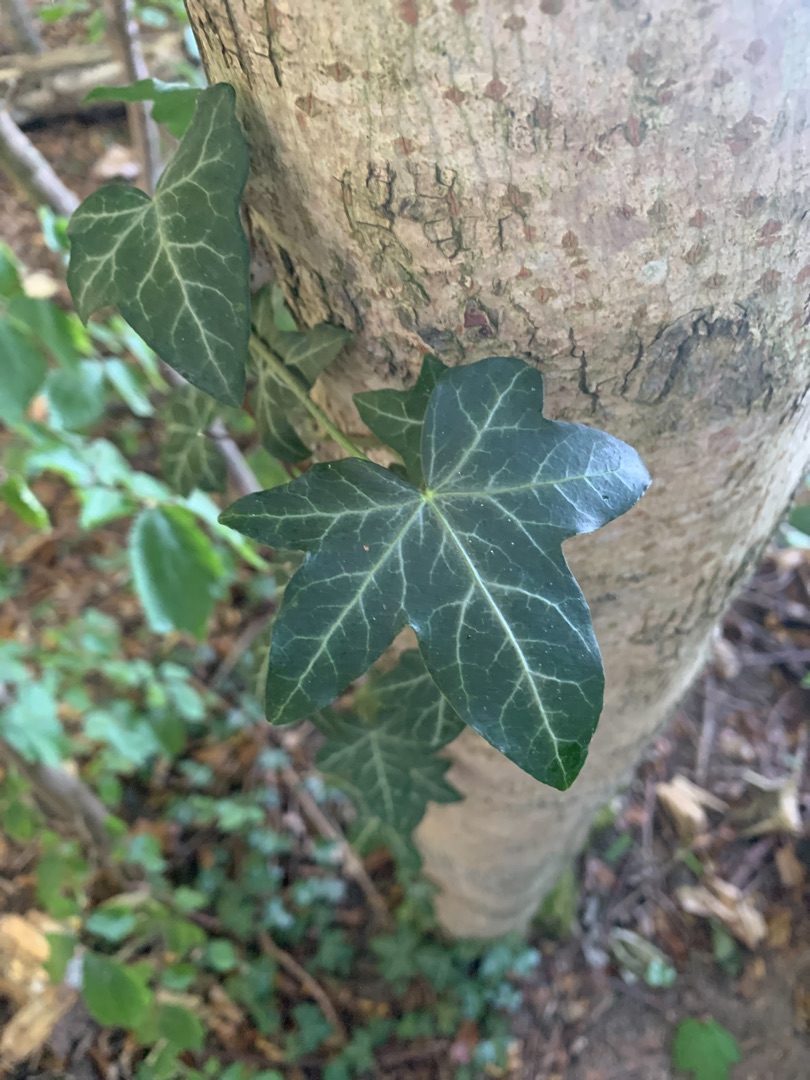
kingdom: Plantae
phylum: Tracheophyta
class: Magnoliopsida
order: Apiales
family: Araliaceae
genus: Hedera
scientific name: Hedera helix
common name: Vedbend
